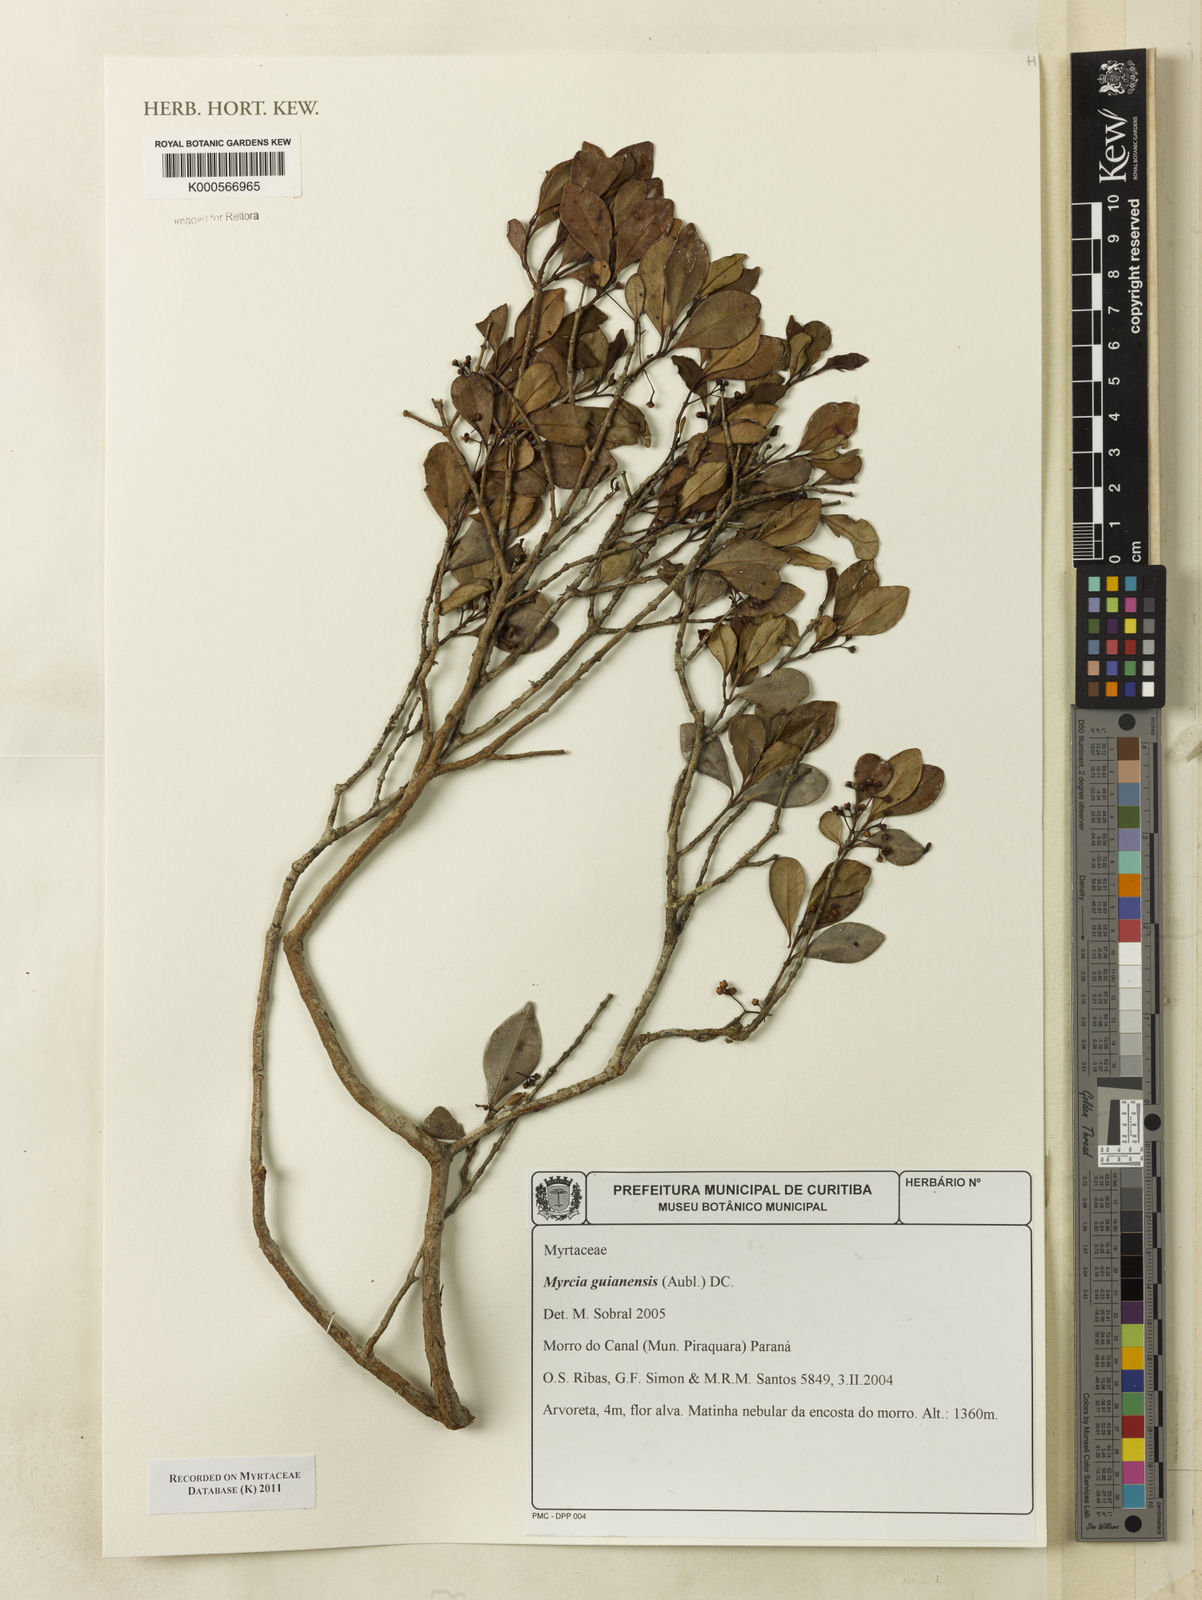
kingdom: Plantae
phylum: Tracheophyta
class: Magnoliopsida
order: Myrtales
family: Myrtaceae
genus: Myrcia
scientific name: Myrcia guianensis
